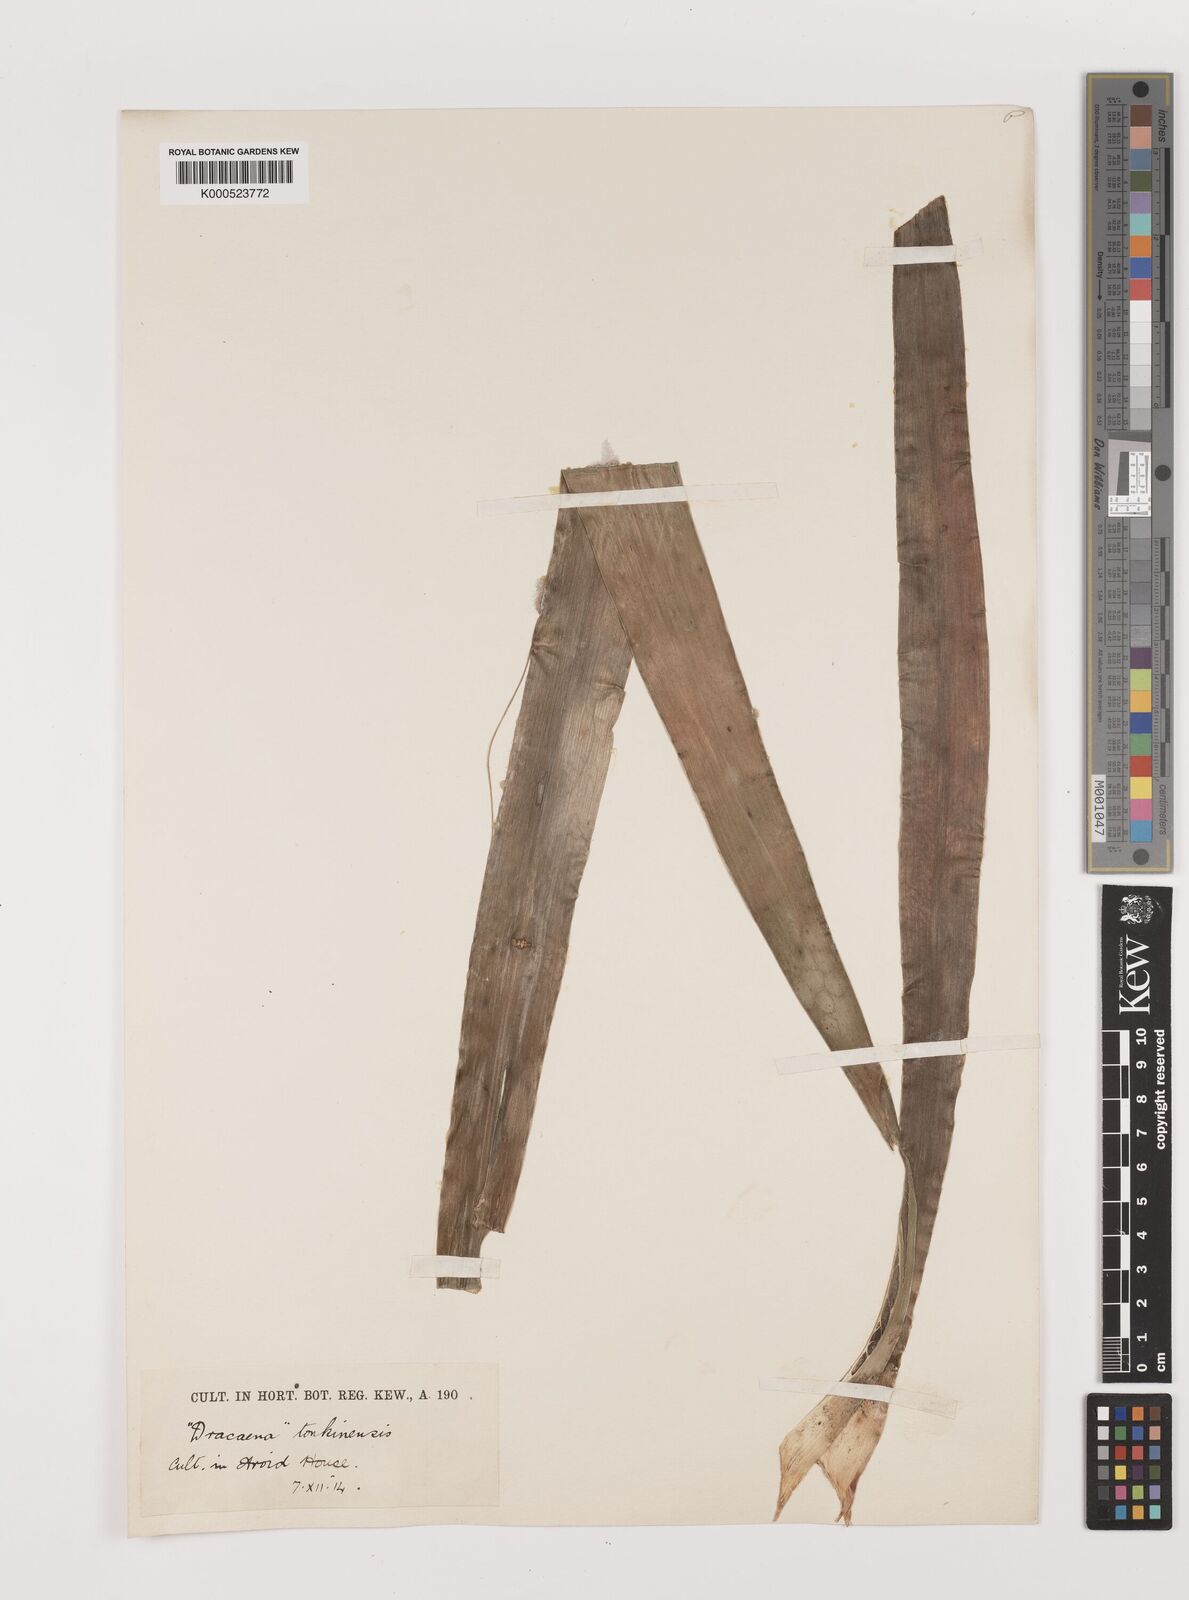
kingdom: Plantae
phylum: Tracheophyta
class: Liliopsida
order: Asparagales
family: Asparagaceae
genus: Dracaena
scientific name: Dracaena
